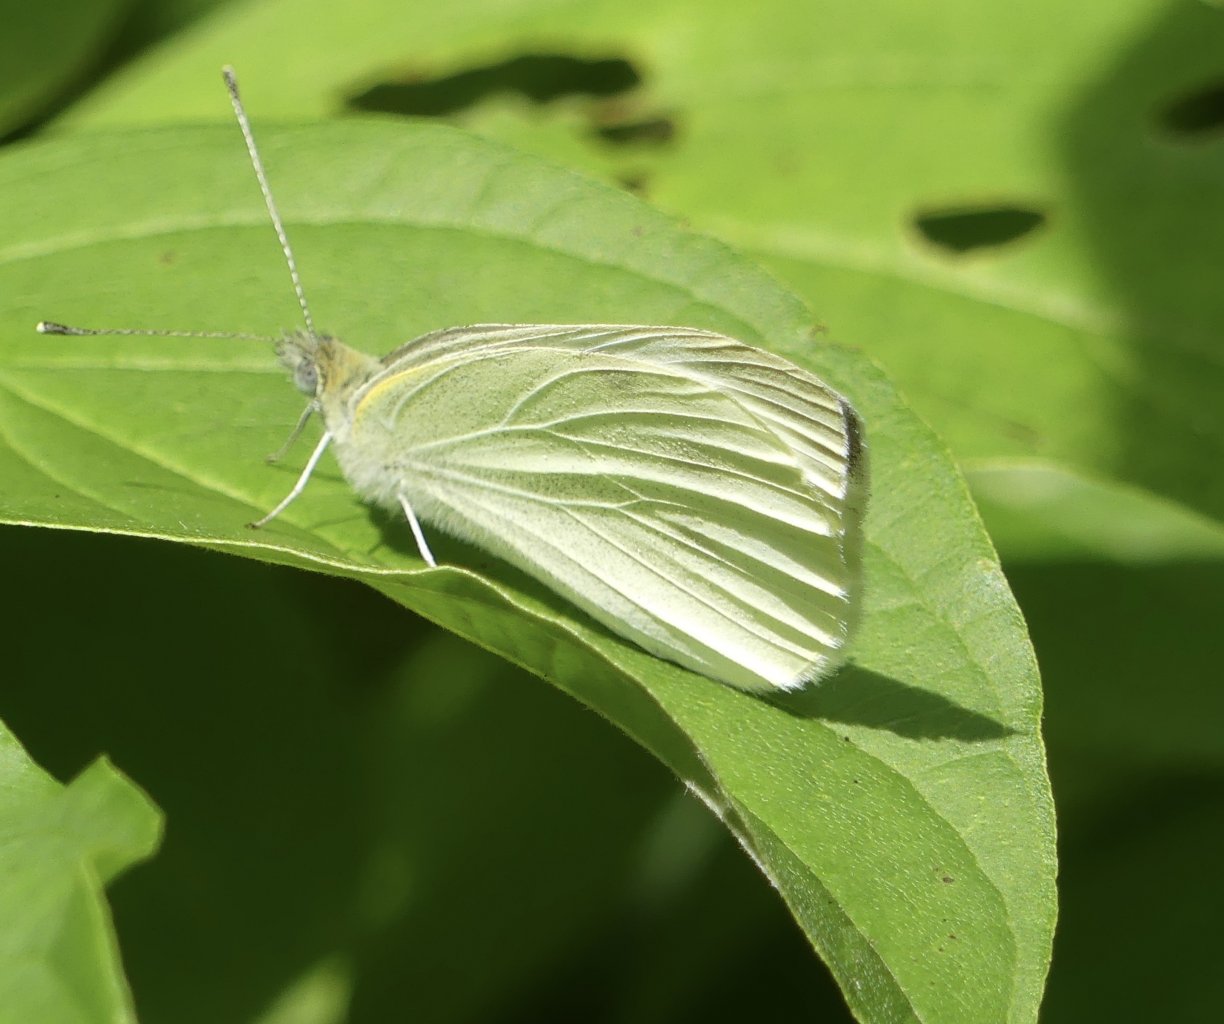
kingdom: Animalia
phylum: Arthropoda
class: Insecta
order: Lepidoptera
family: Pieridae
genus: Pieris
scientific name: Pieris rapae
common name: Cabbage White
